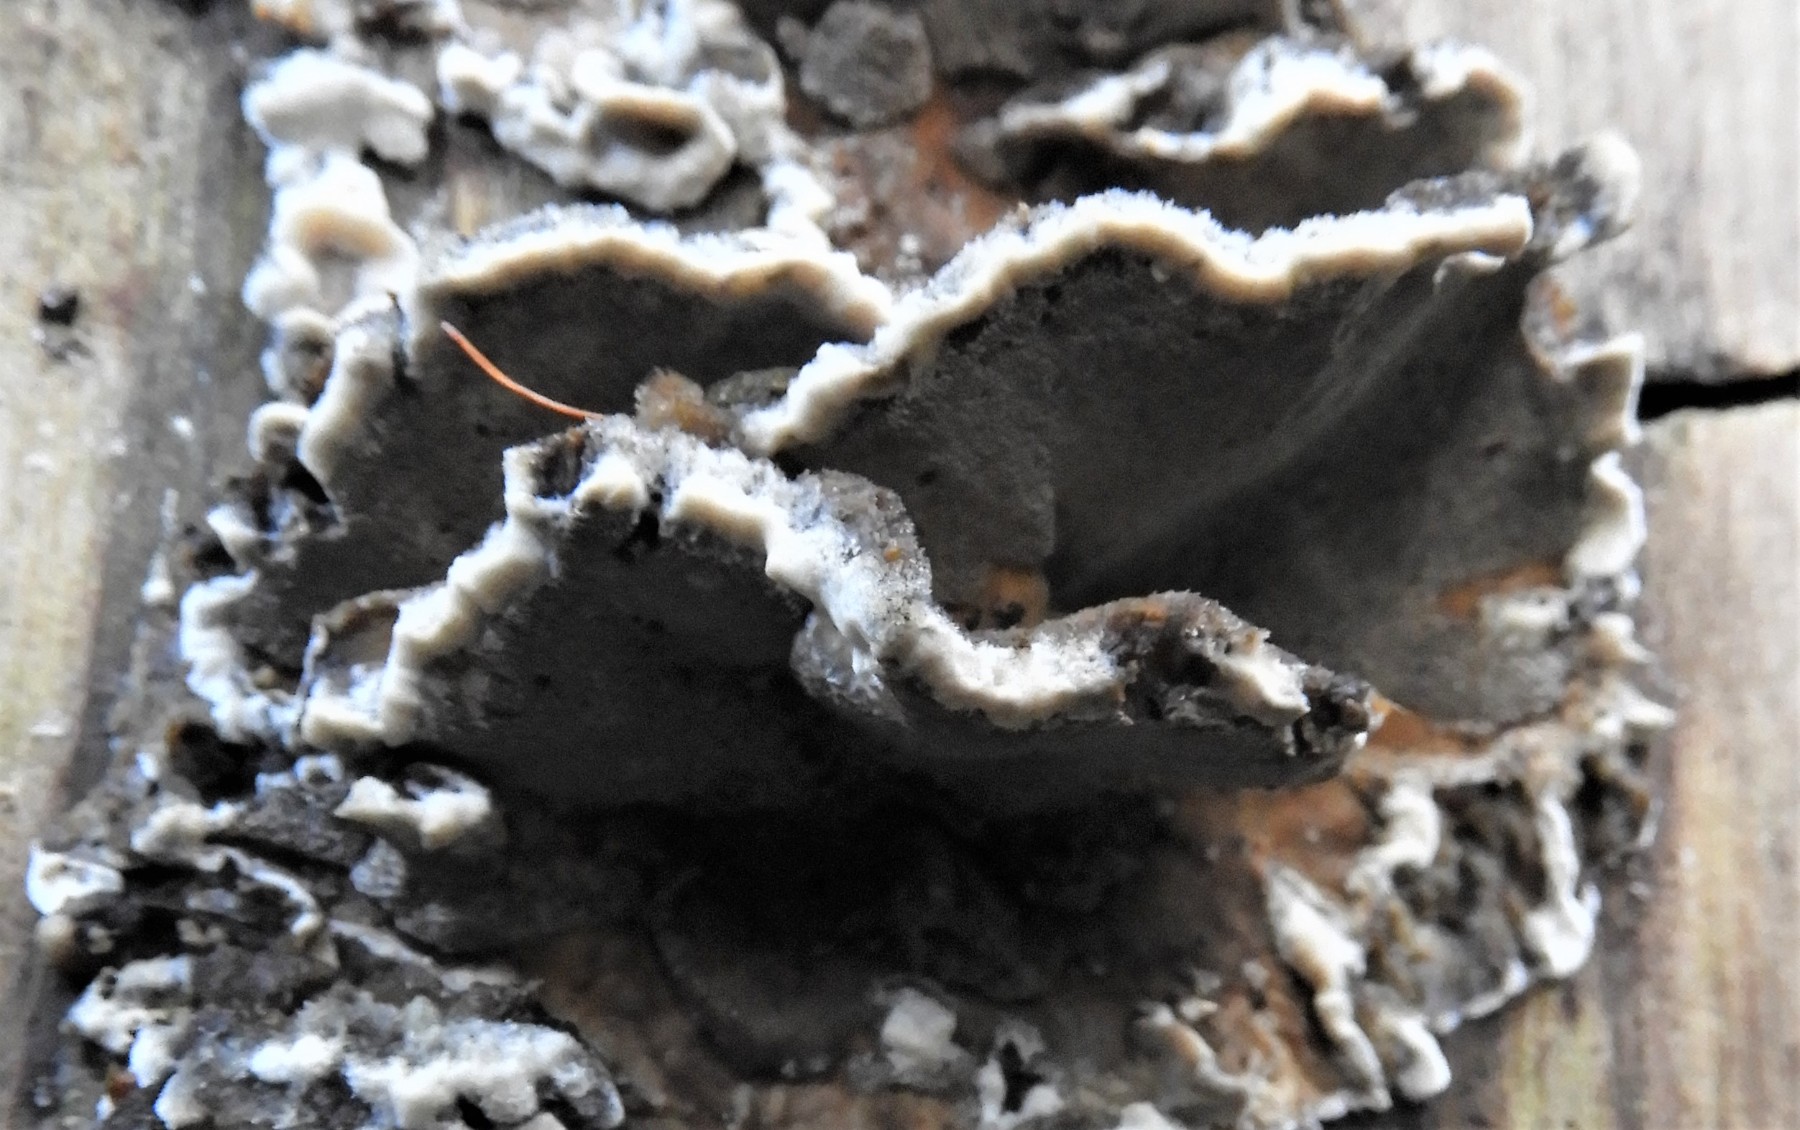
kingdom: Fungi
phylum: Basidiomycota
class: Agaricomycetes
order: Polyporales
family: Phanerochaetaceae
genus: Bjerkandera
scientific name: Bjerkandera adusta
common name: sveden sodporesvamp
